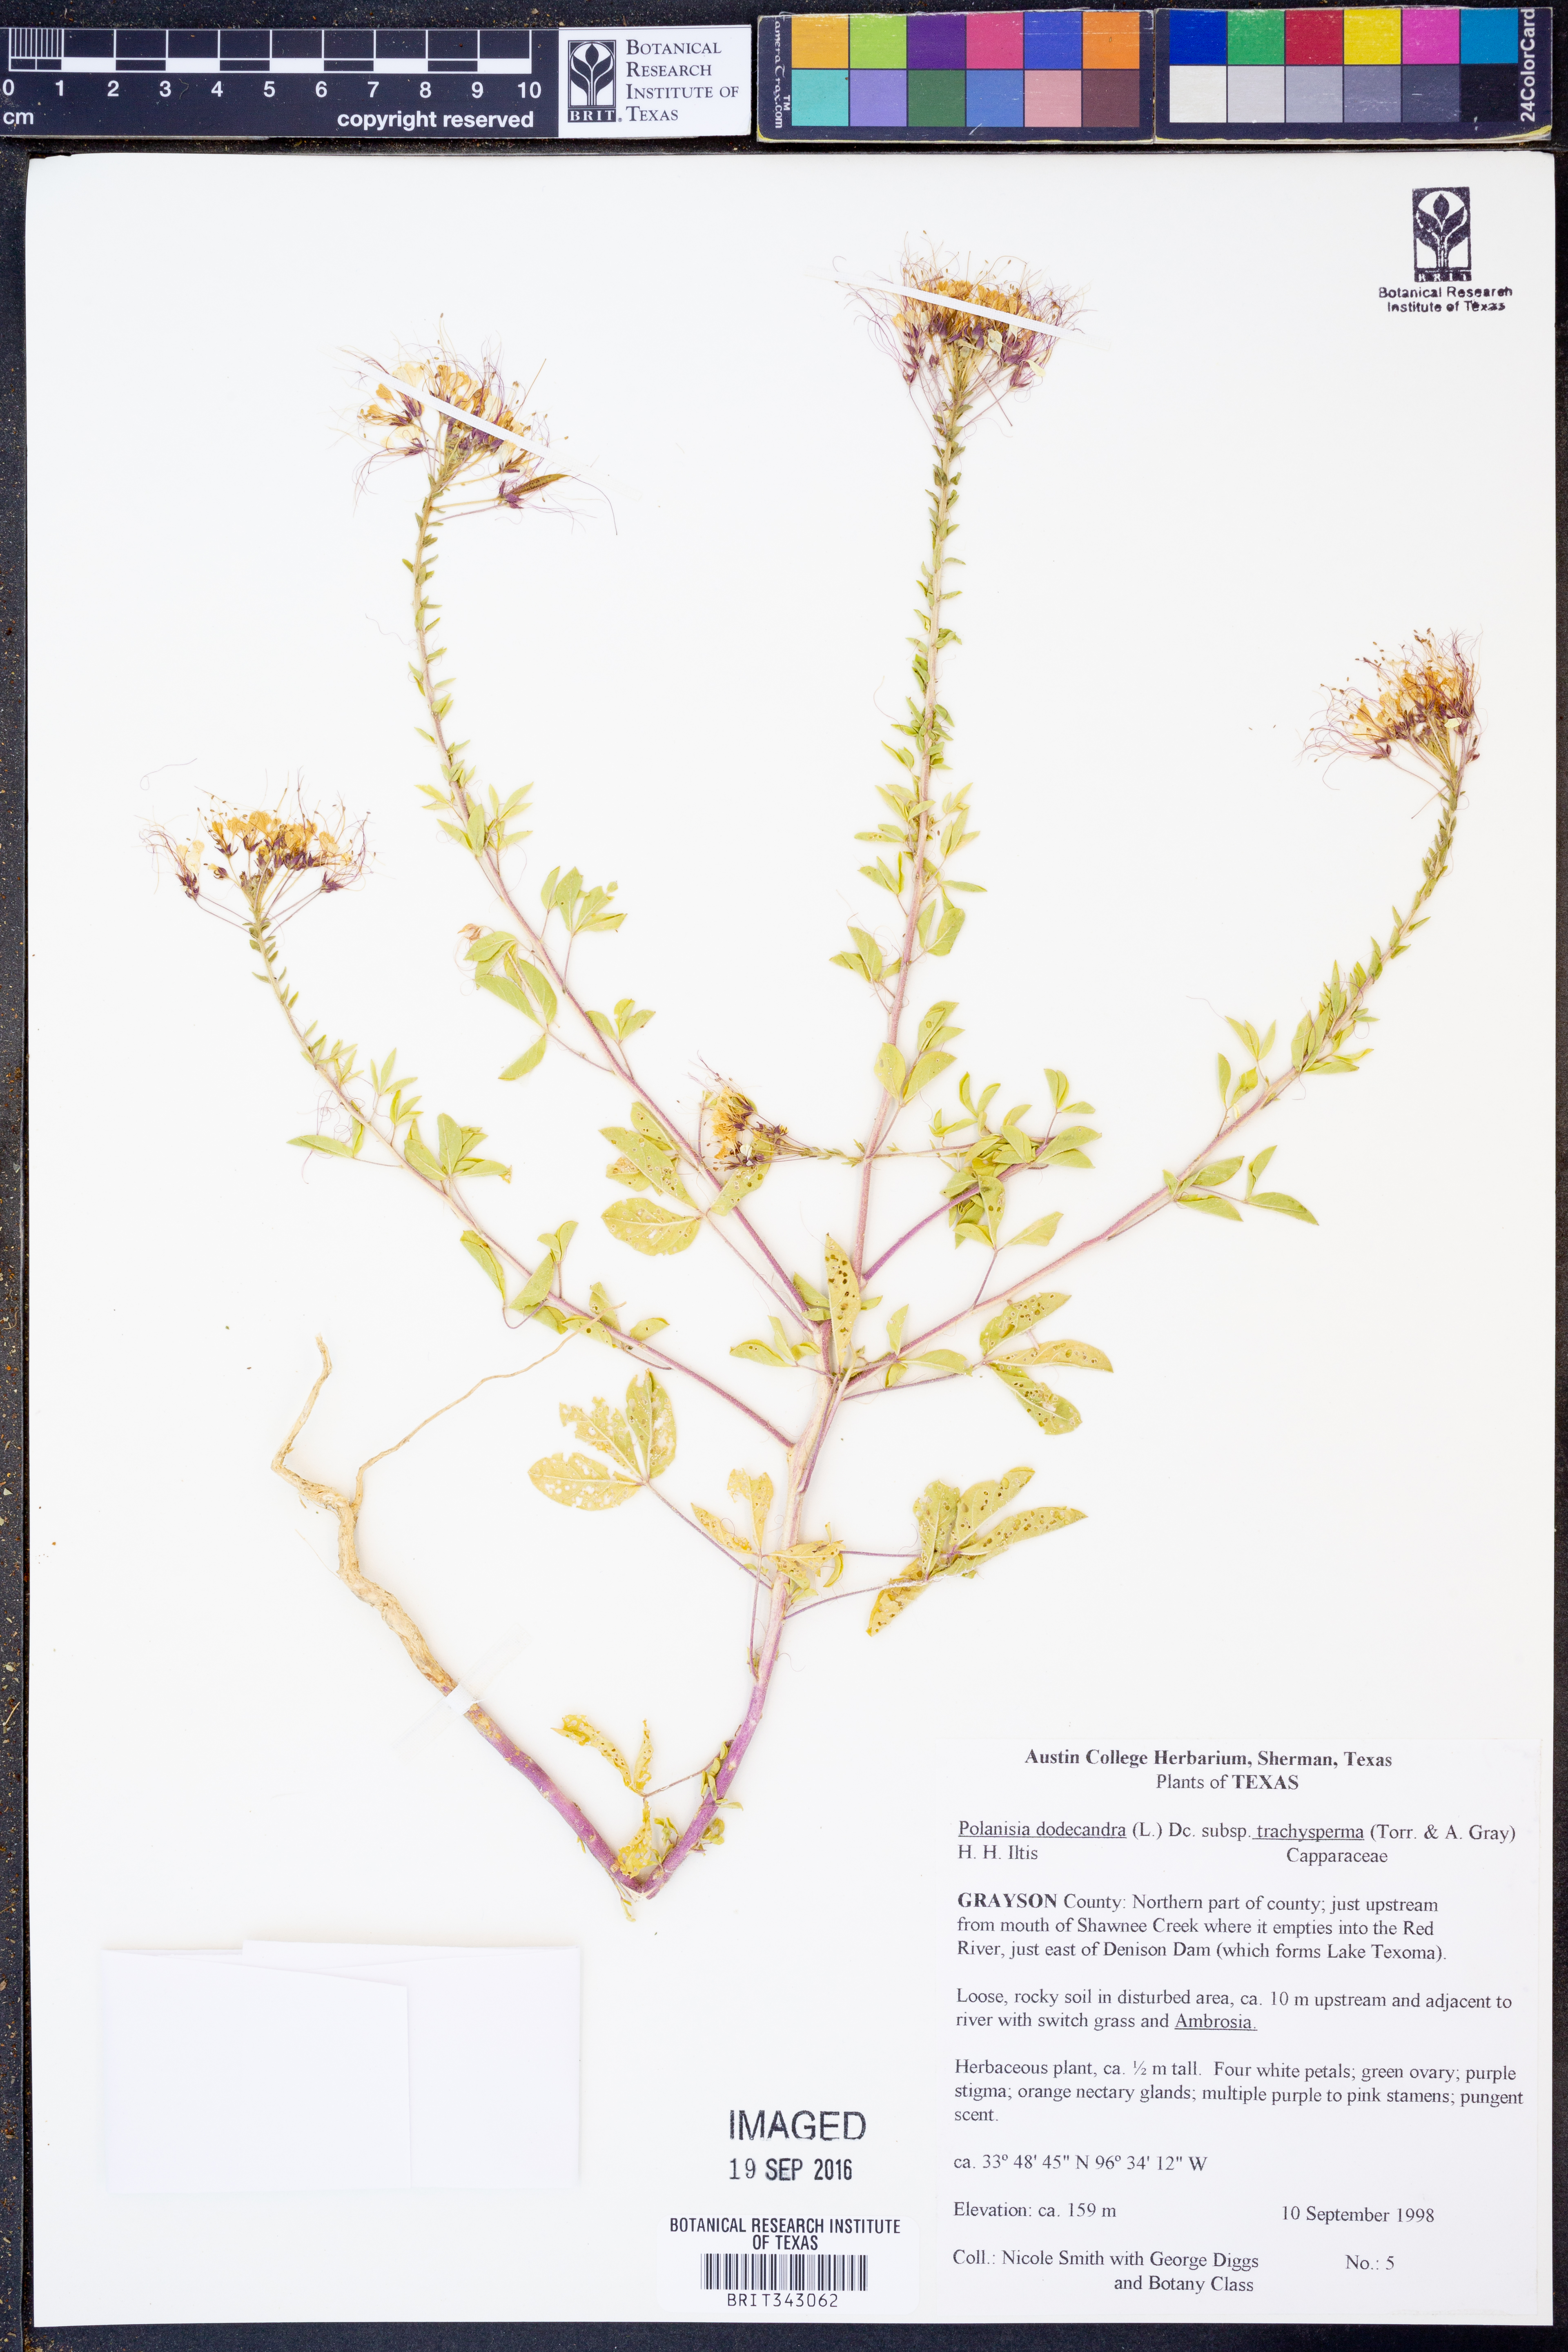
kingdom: Plantae
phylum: Tracheophyta
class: Magnoliopsida
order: Brassicales
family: Cleomaceae
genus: Polanisia
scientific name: Polanisia trachysperma
